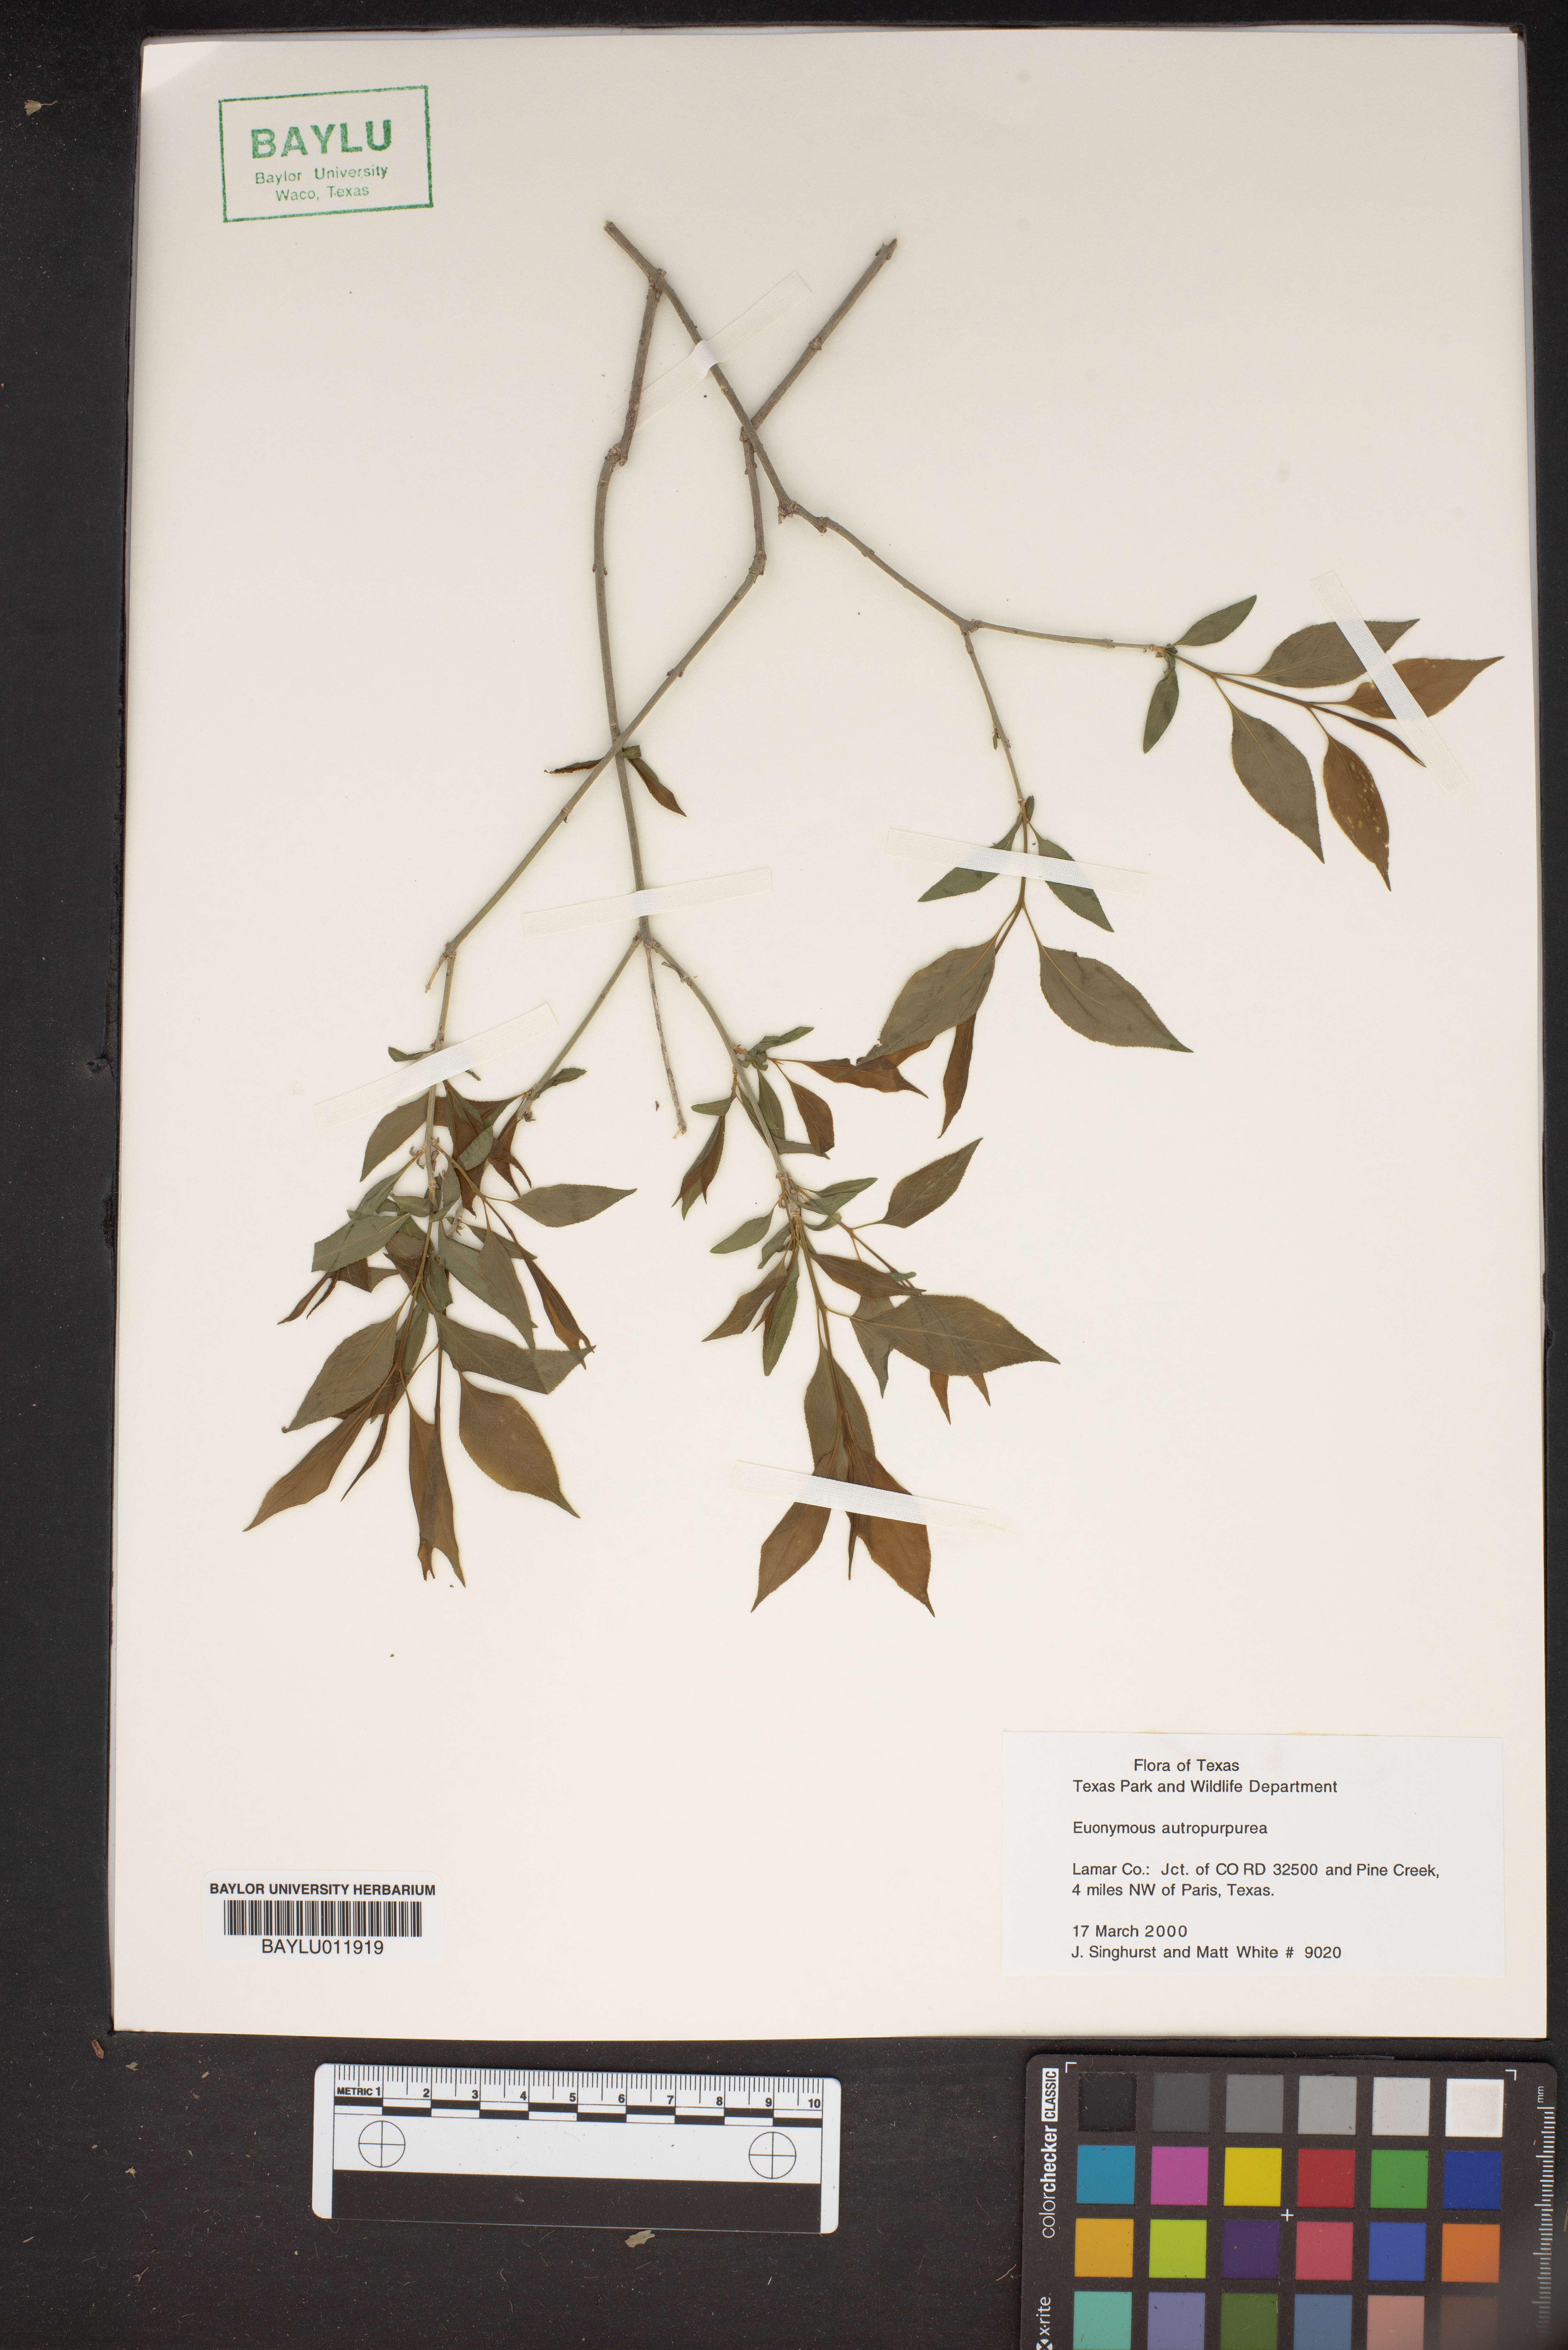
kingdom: Plantae
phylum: Tracheophyta
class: Magnoliopsida
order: Celastrales
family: Celastraceae
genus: Euonymus
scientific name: Euonymus atropurpureus
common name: Eastern wahoo
